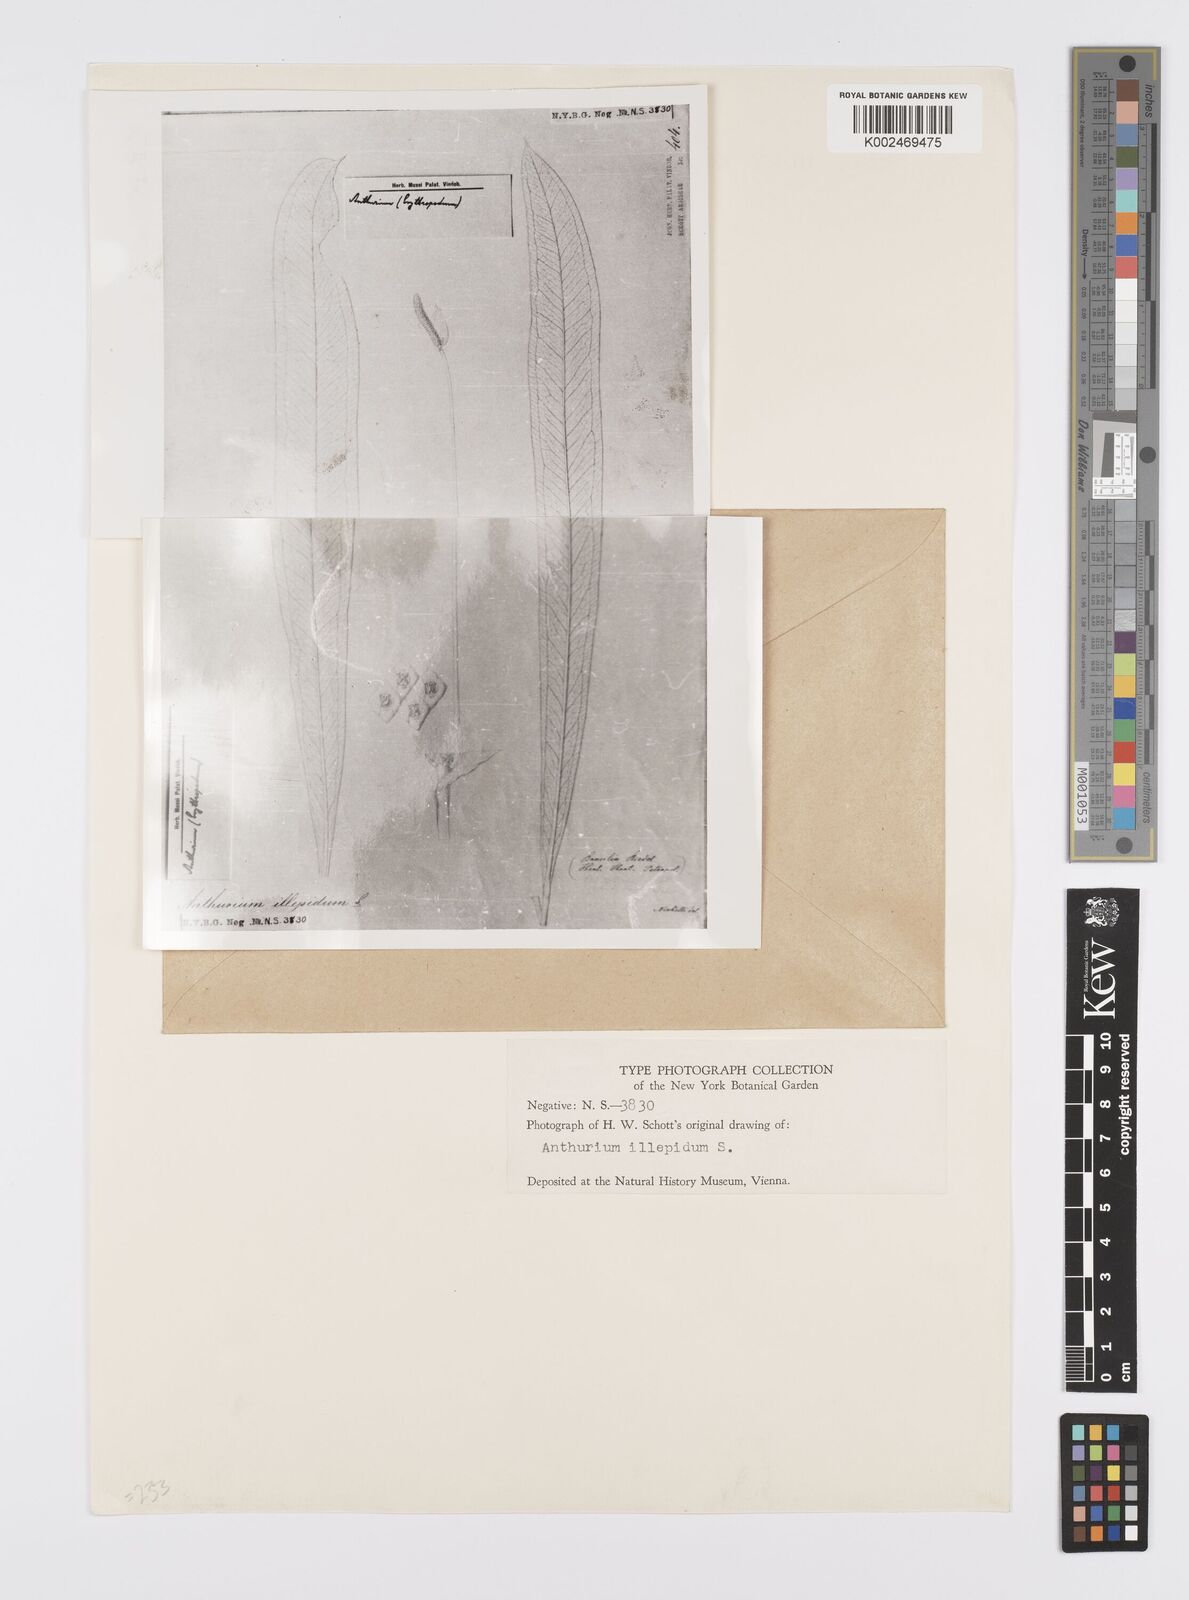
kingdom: Plantae
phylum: Tracheophyta
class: Liliopsida
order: Alismatales
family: Araceae
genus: Anthurium
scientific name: Anthurium illepidum
